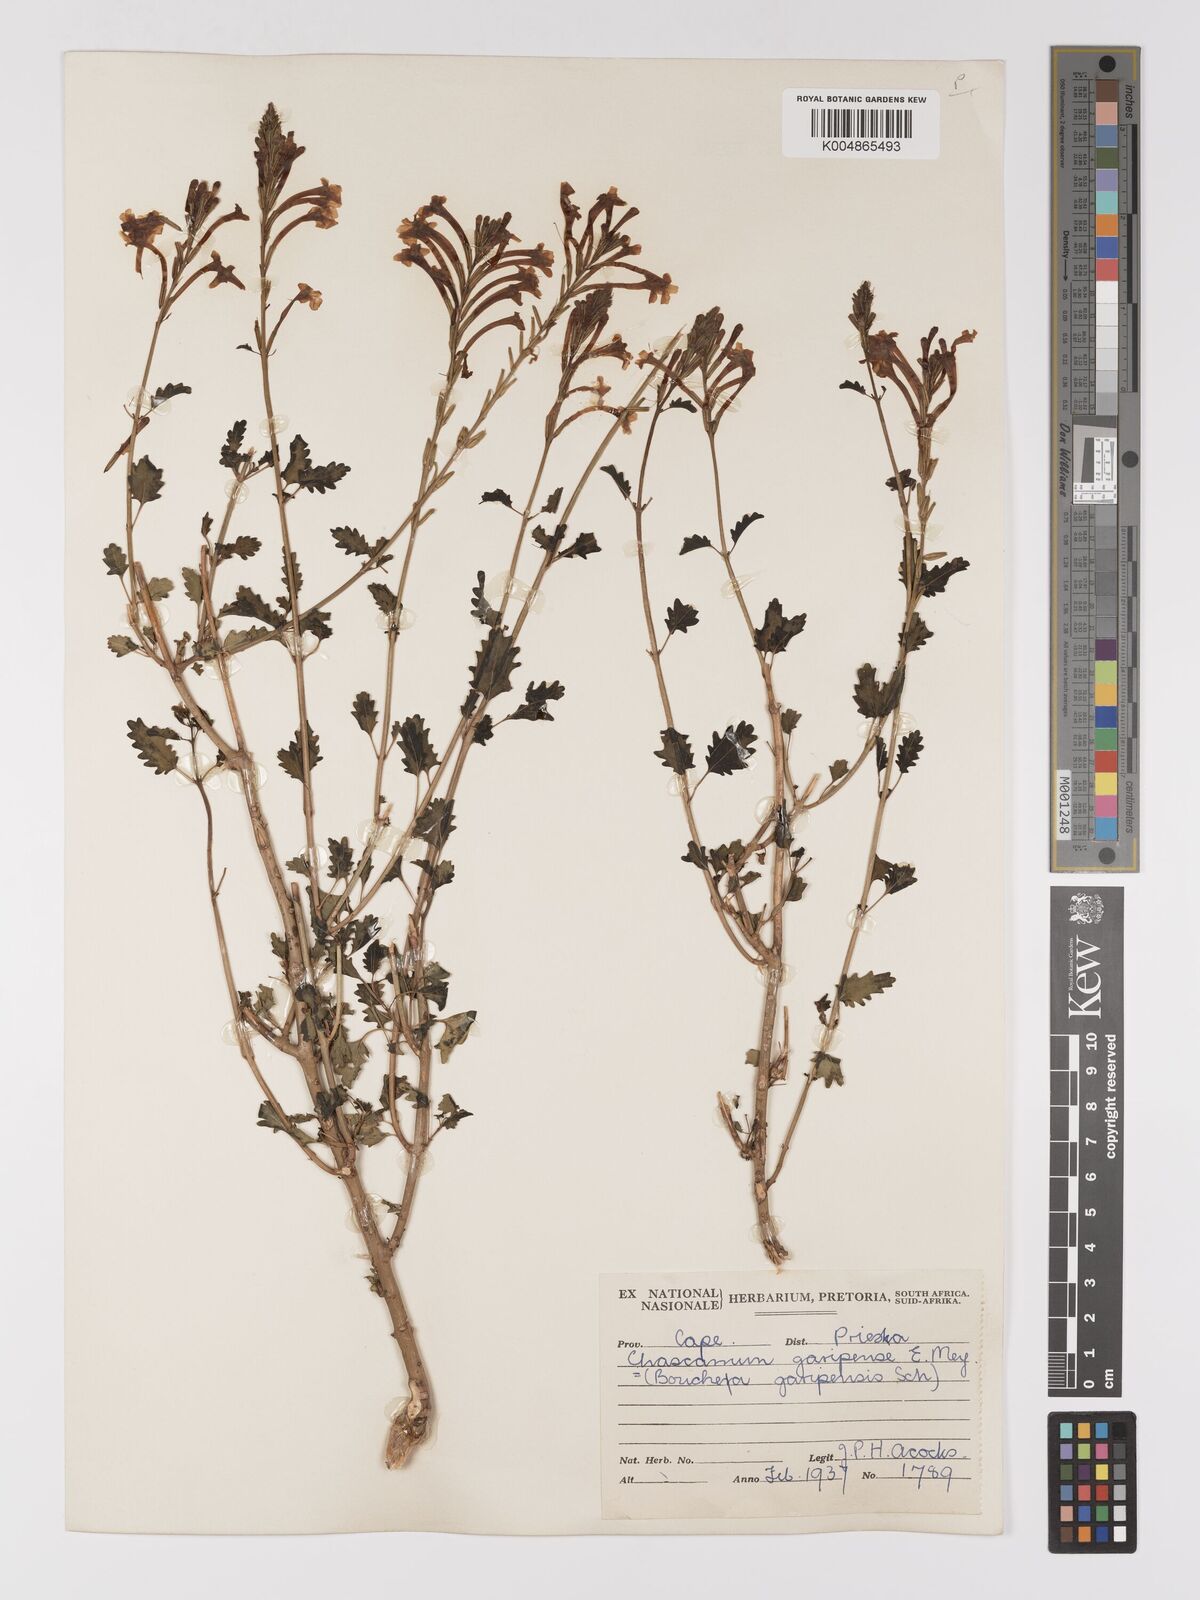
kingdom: Plantae
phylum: Tracheophyta
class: Magnoliopsida
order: Lamiales
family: Verbenaceae
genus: Chascanum
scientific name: Chascanum garipense
